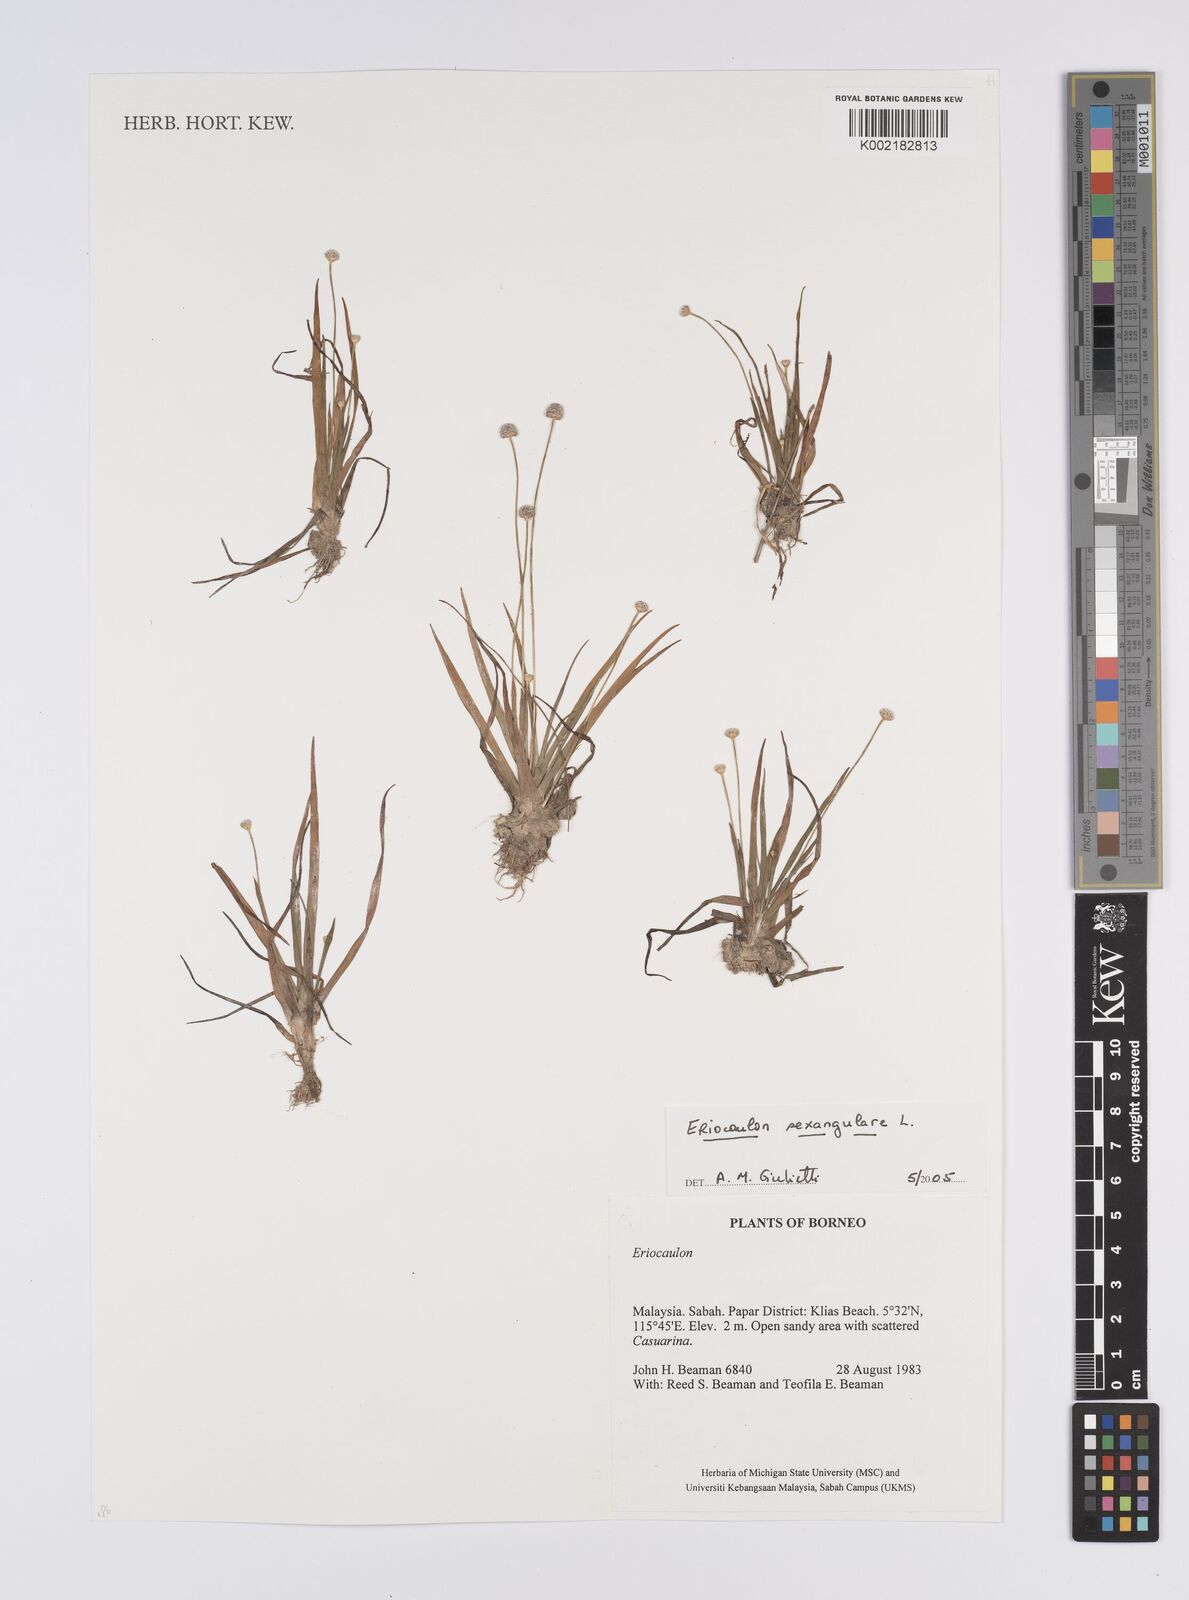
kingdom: Plantae
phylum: Tracheophyta
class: Liliopsida
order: Poales
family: Eriocaulaceae
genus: Eriocaulon
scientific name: Eriocaulon sexangulare
